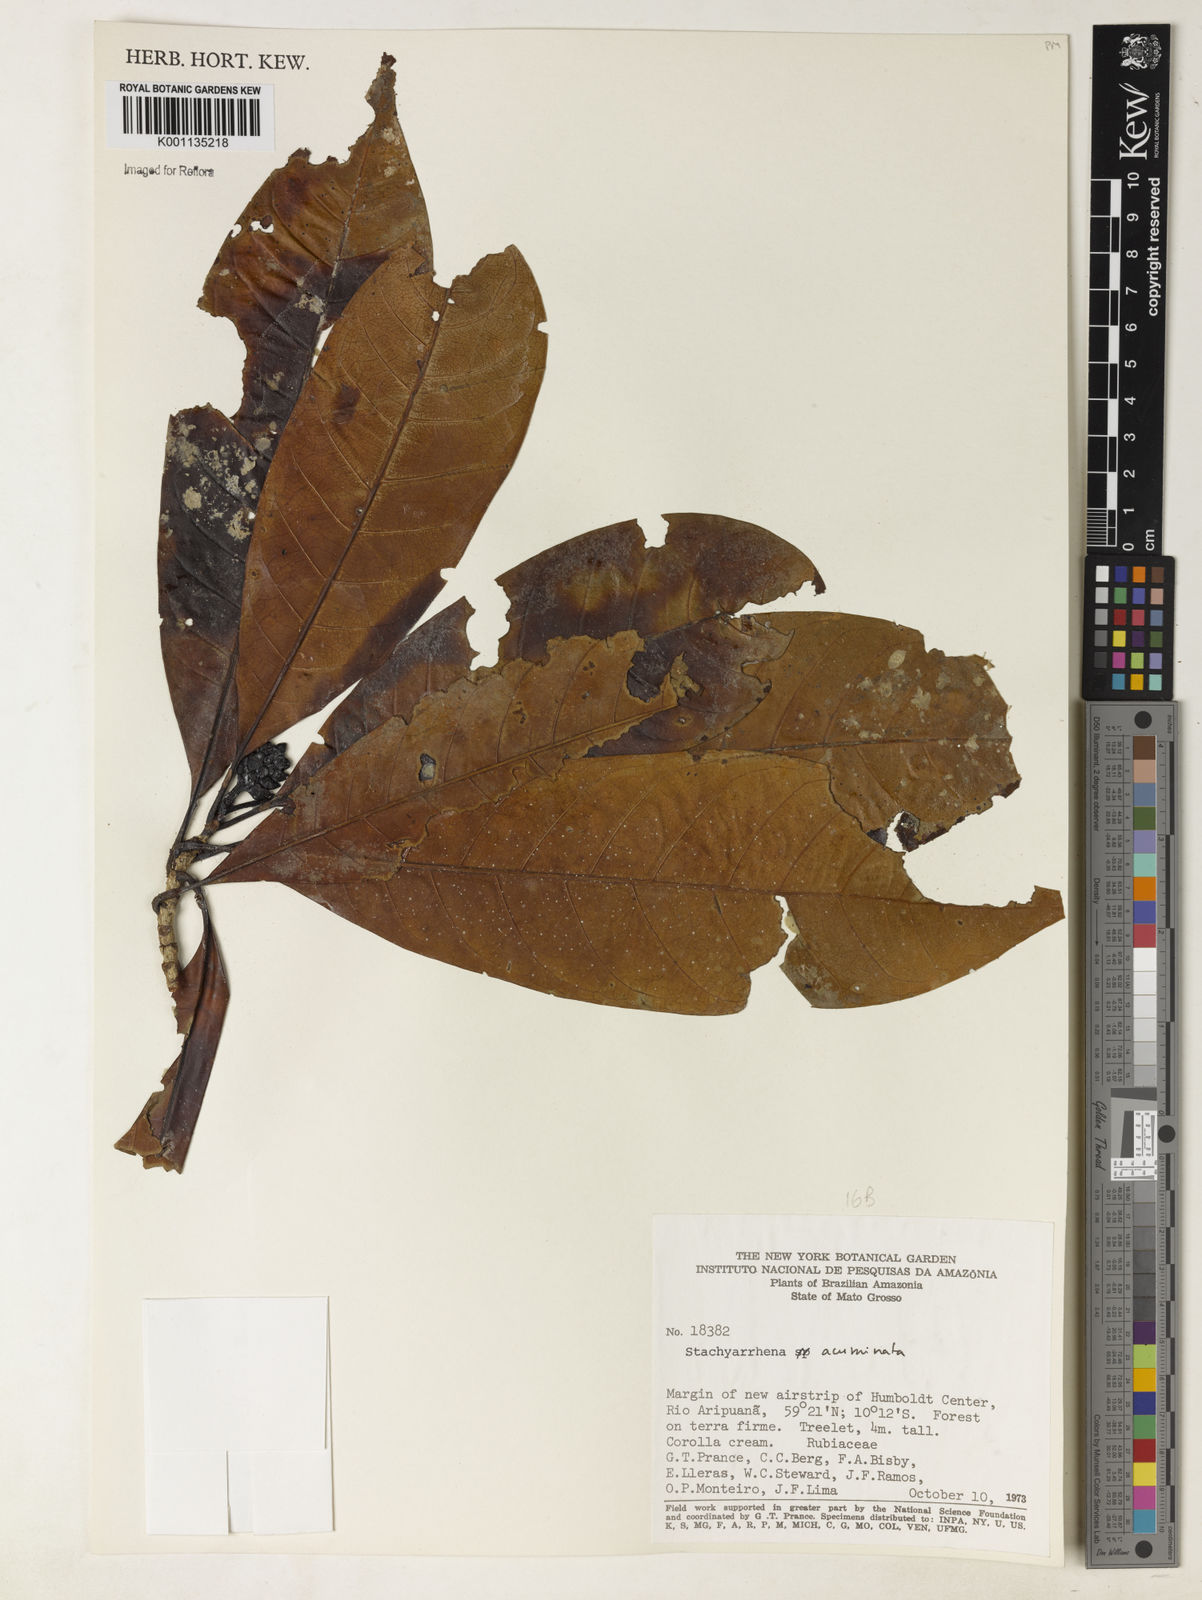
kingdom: Plantae
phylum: Tracheophyta
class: Magnoliopsida
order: Gentianales
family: Rubiaceae
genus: Stachyarrhena
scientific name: Stachyarrhena acuminata
